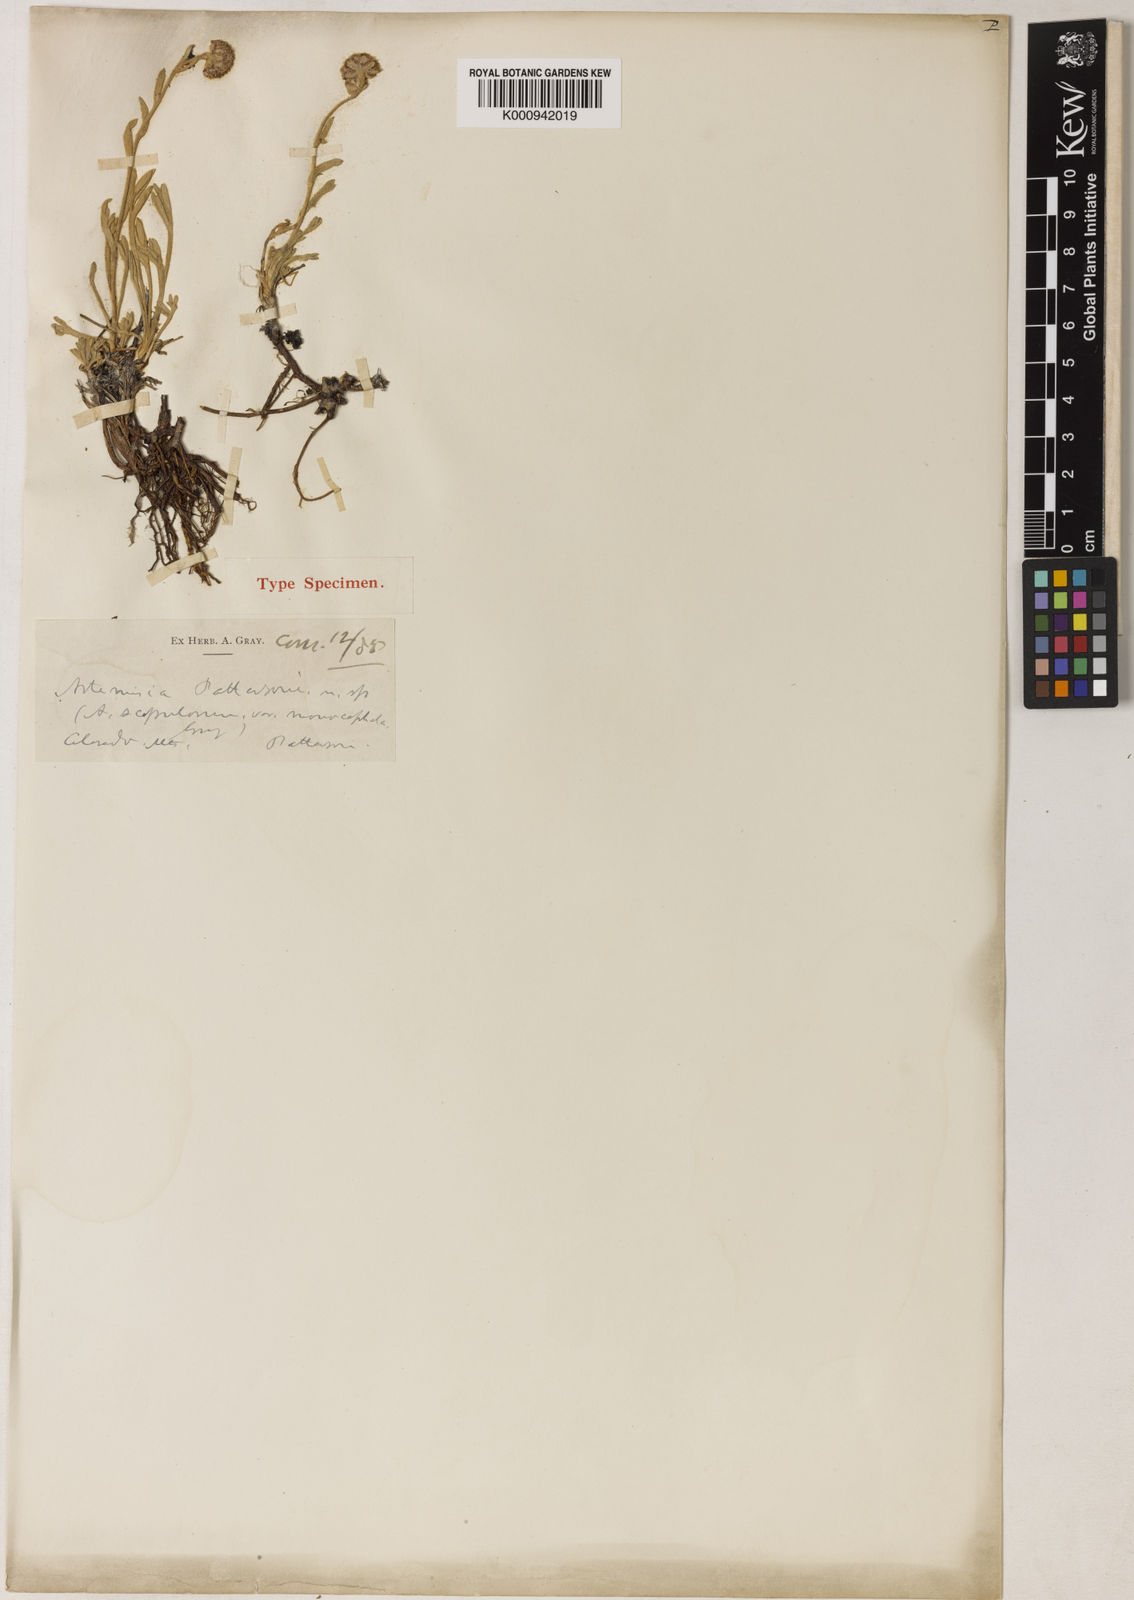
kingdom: Plantae
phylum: Tracheophyta
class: Magnoliopsida
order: Asterales
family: Asteraceae
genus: Delwiensia
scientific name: Delwiensia pattersonii
